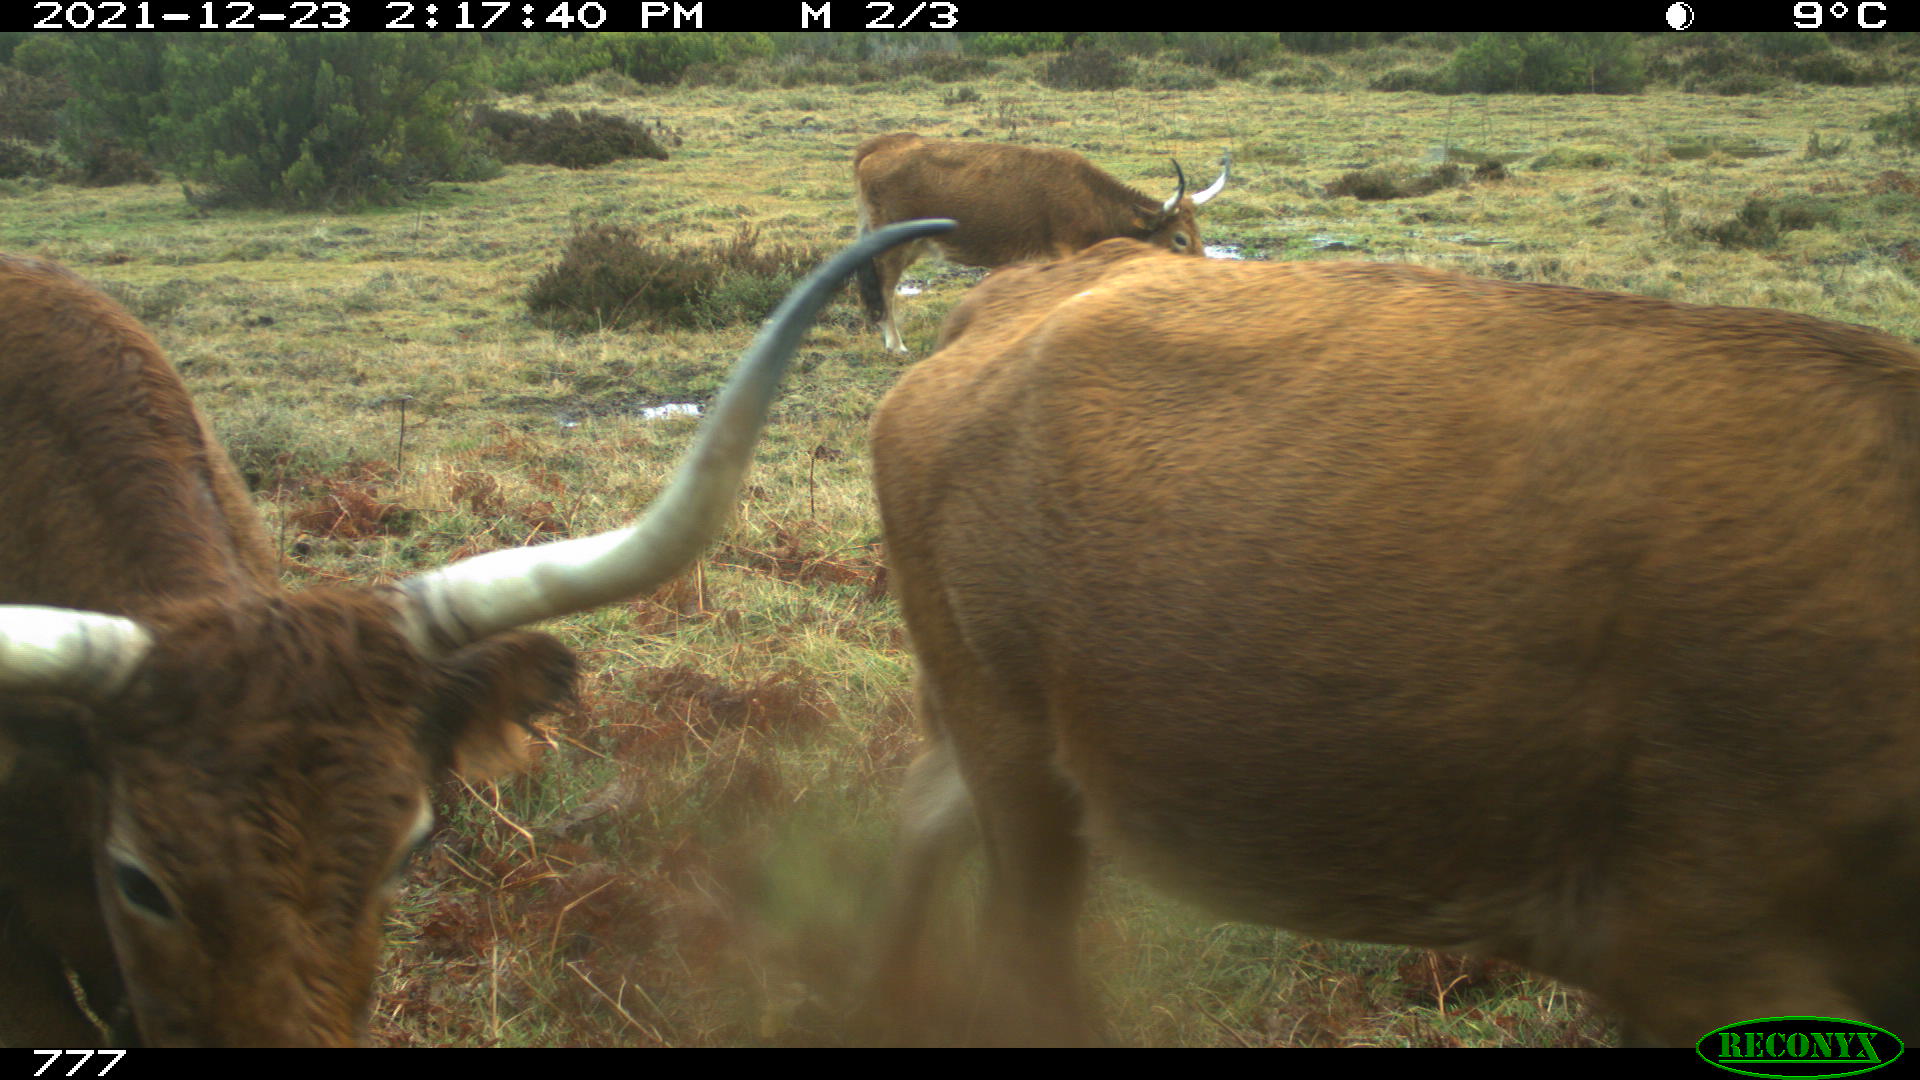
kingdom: Animalia
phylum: Chordata
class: Mammalia
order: Artiodactyla
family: Bovidae
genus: Bos
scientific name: Bos taurus
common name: Domesticated cattle
